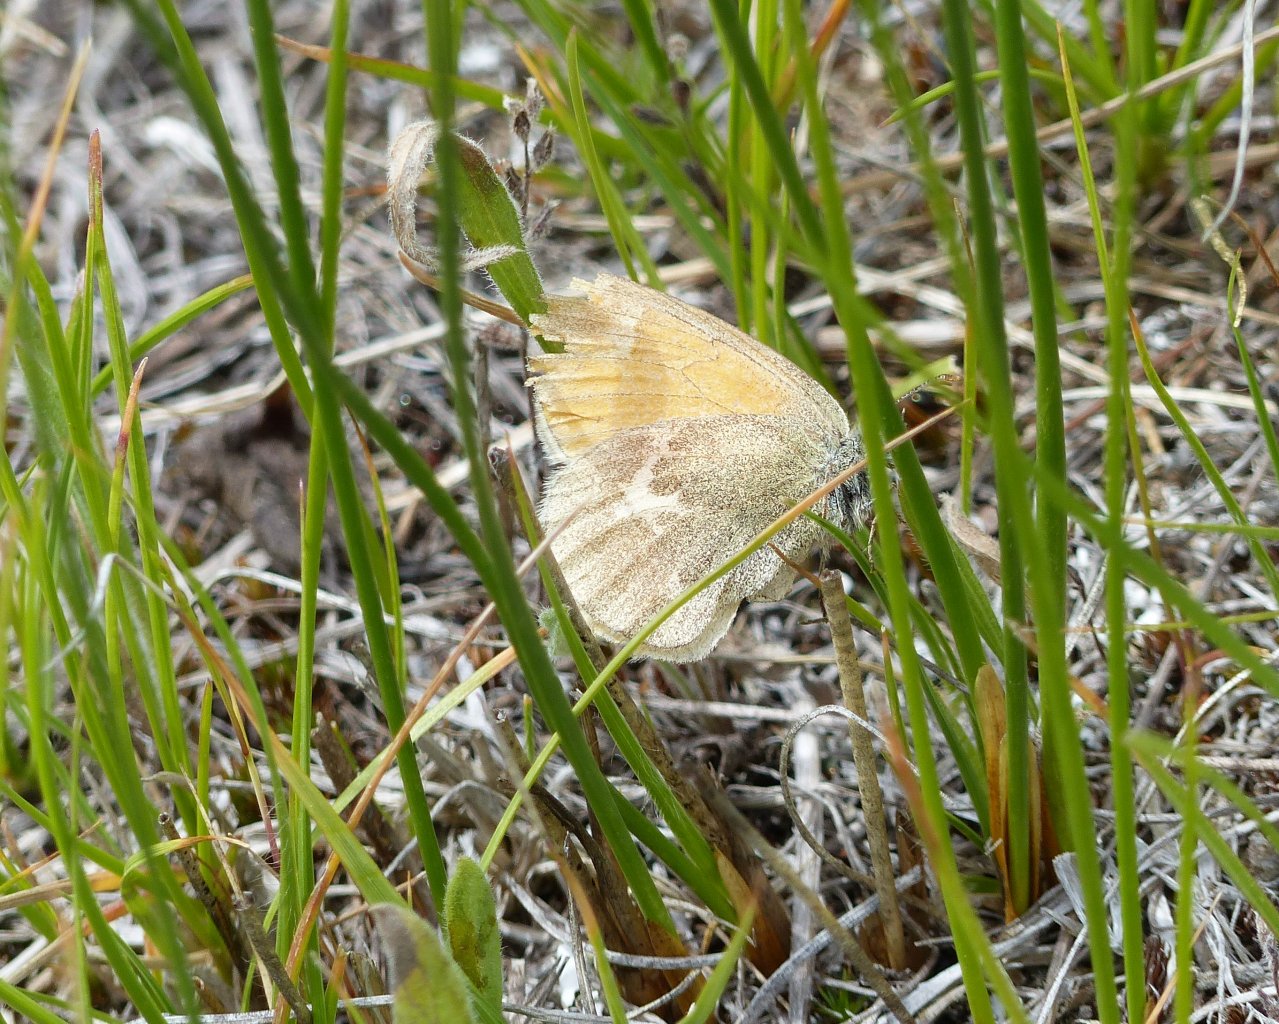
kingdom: Animalia
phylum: Arthropoda
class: Insecta
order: Lepidoptera
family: Nymphalidae
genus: Coenonympha
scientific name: Coenonympha tullia
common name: Large Heath
